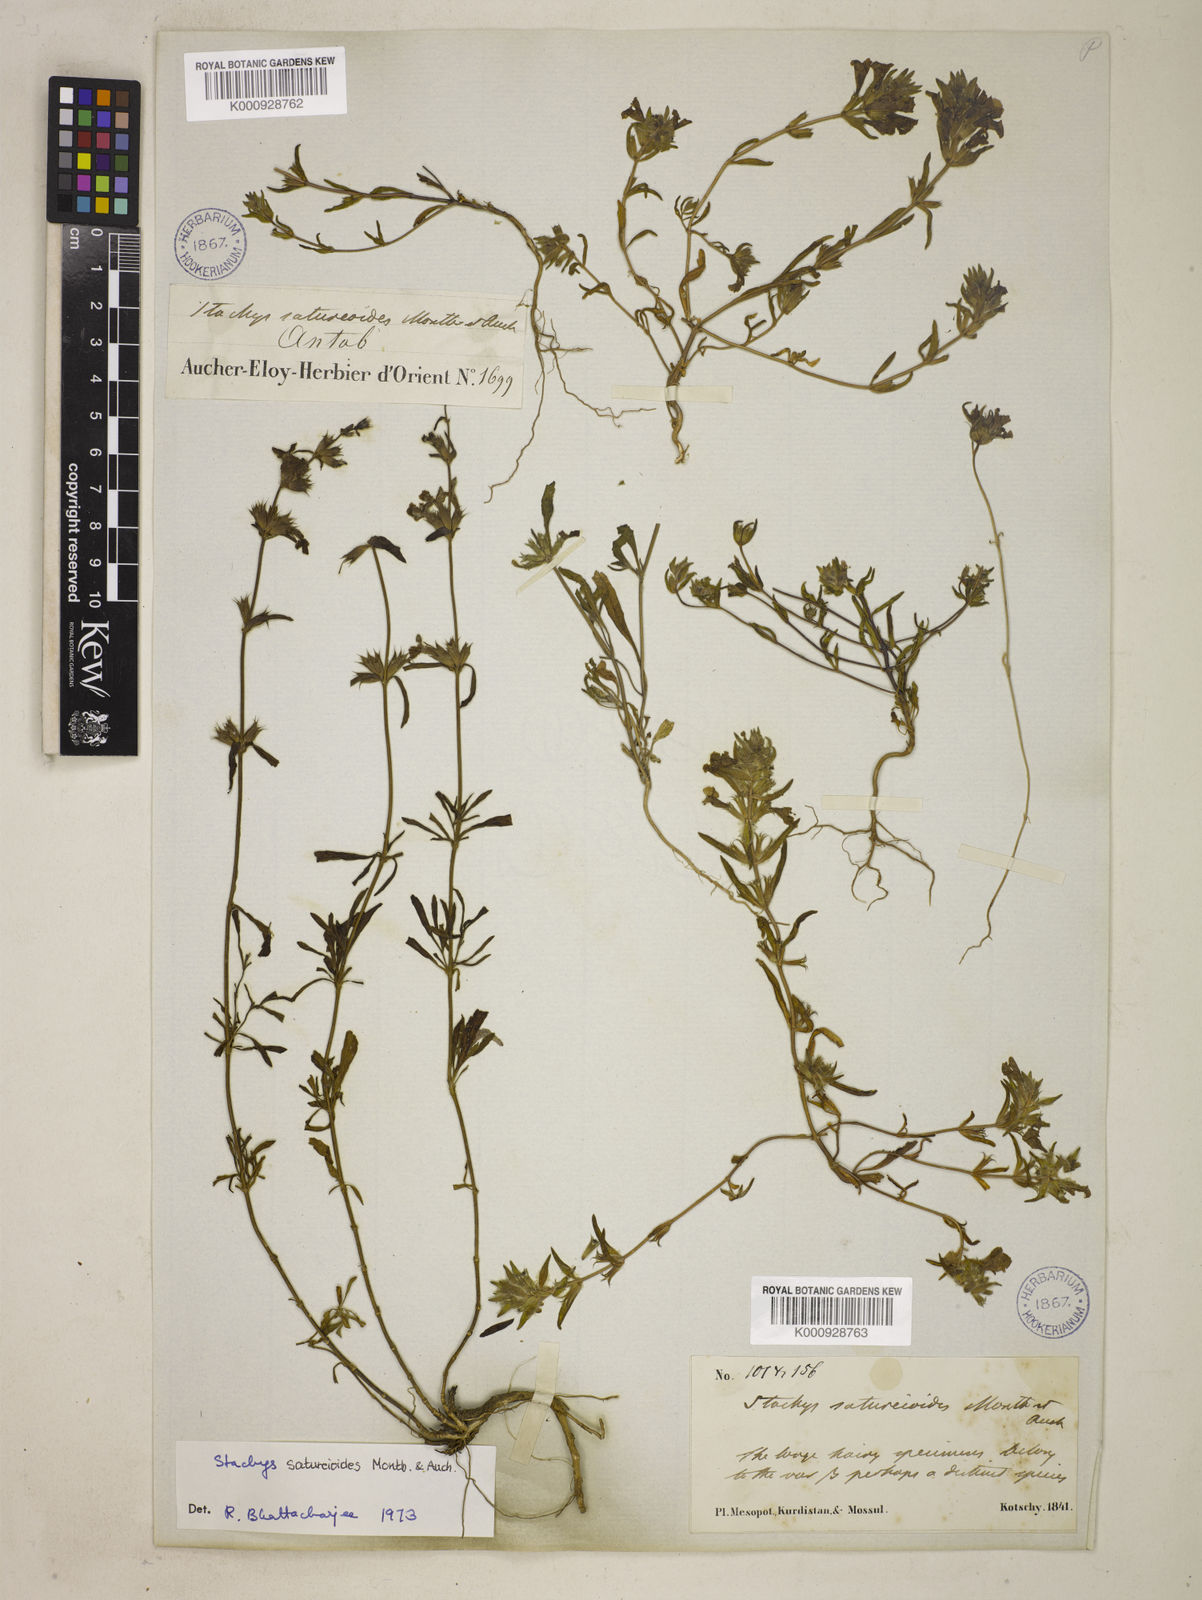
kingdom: Plantae
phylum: Tracheophyta
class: Magnoliopsida
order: Lamiales
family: Lamiaceae
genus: Stachys
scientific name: Stachys saturejoides
